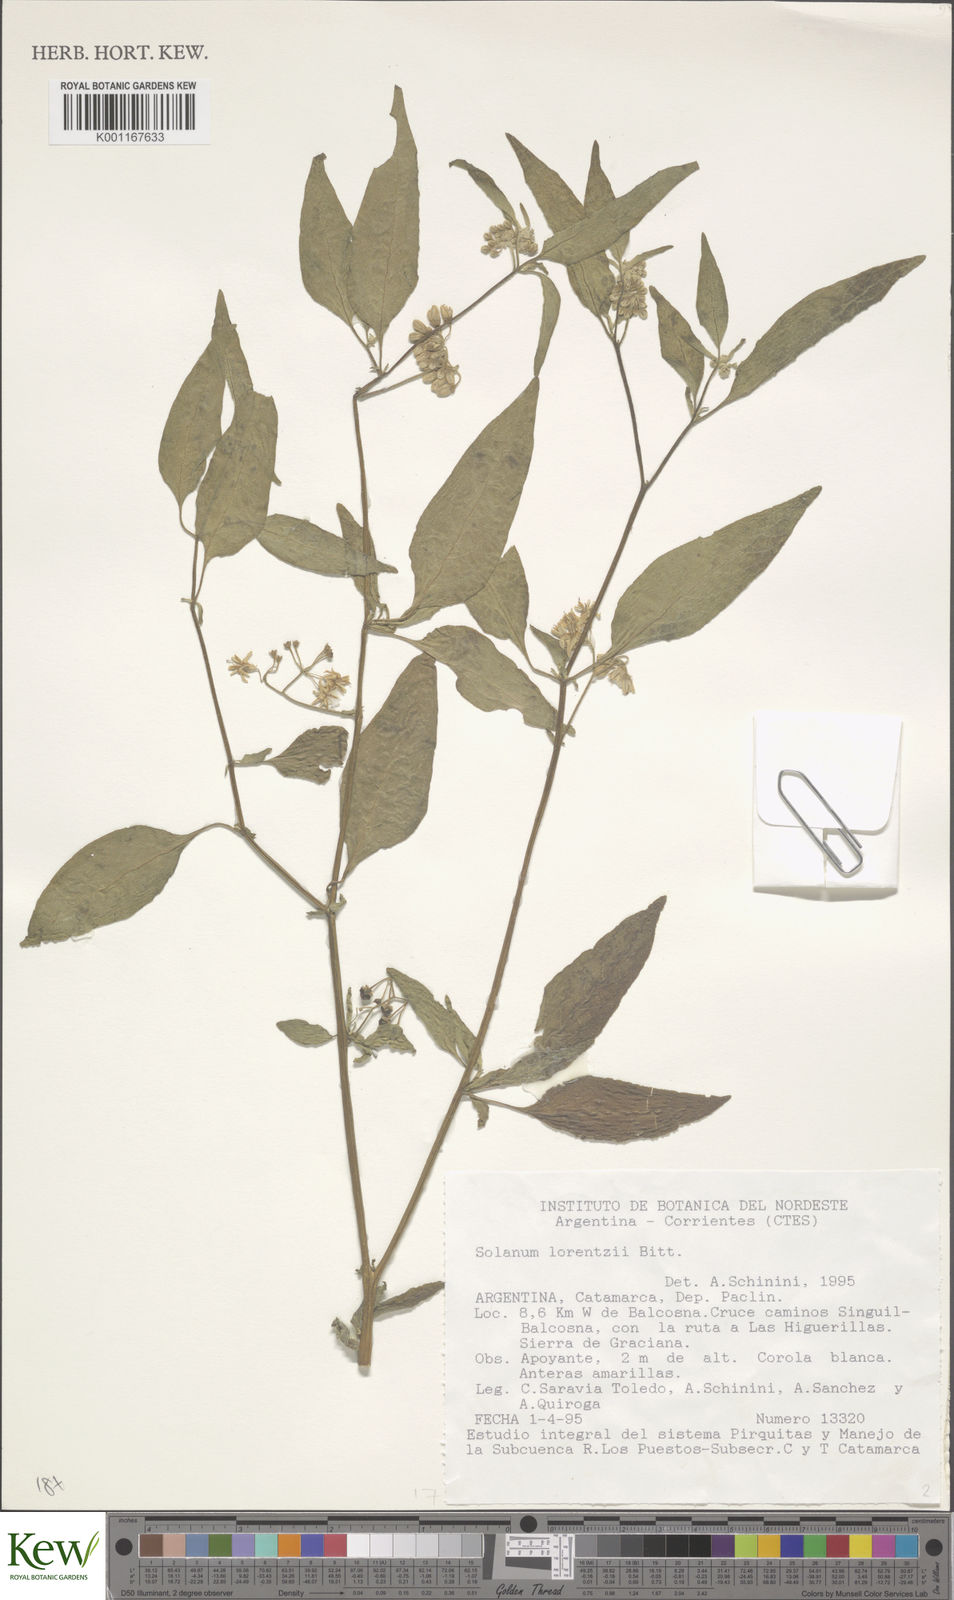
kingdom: Plantae
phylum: Tracheophyta
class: Magnoliopsida
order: Solanales
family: Solanaceae
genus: Solanum
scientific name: Solanum aloysiifolium
